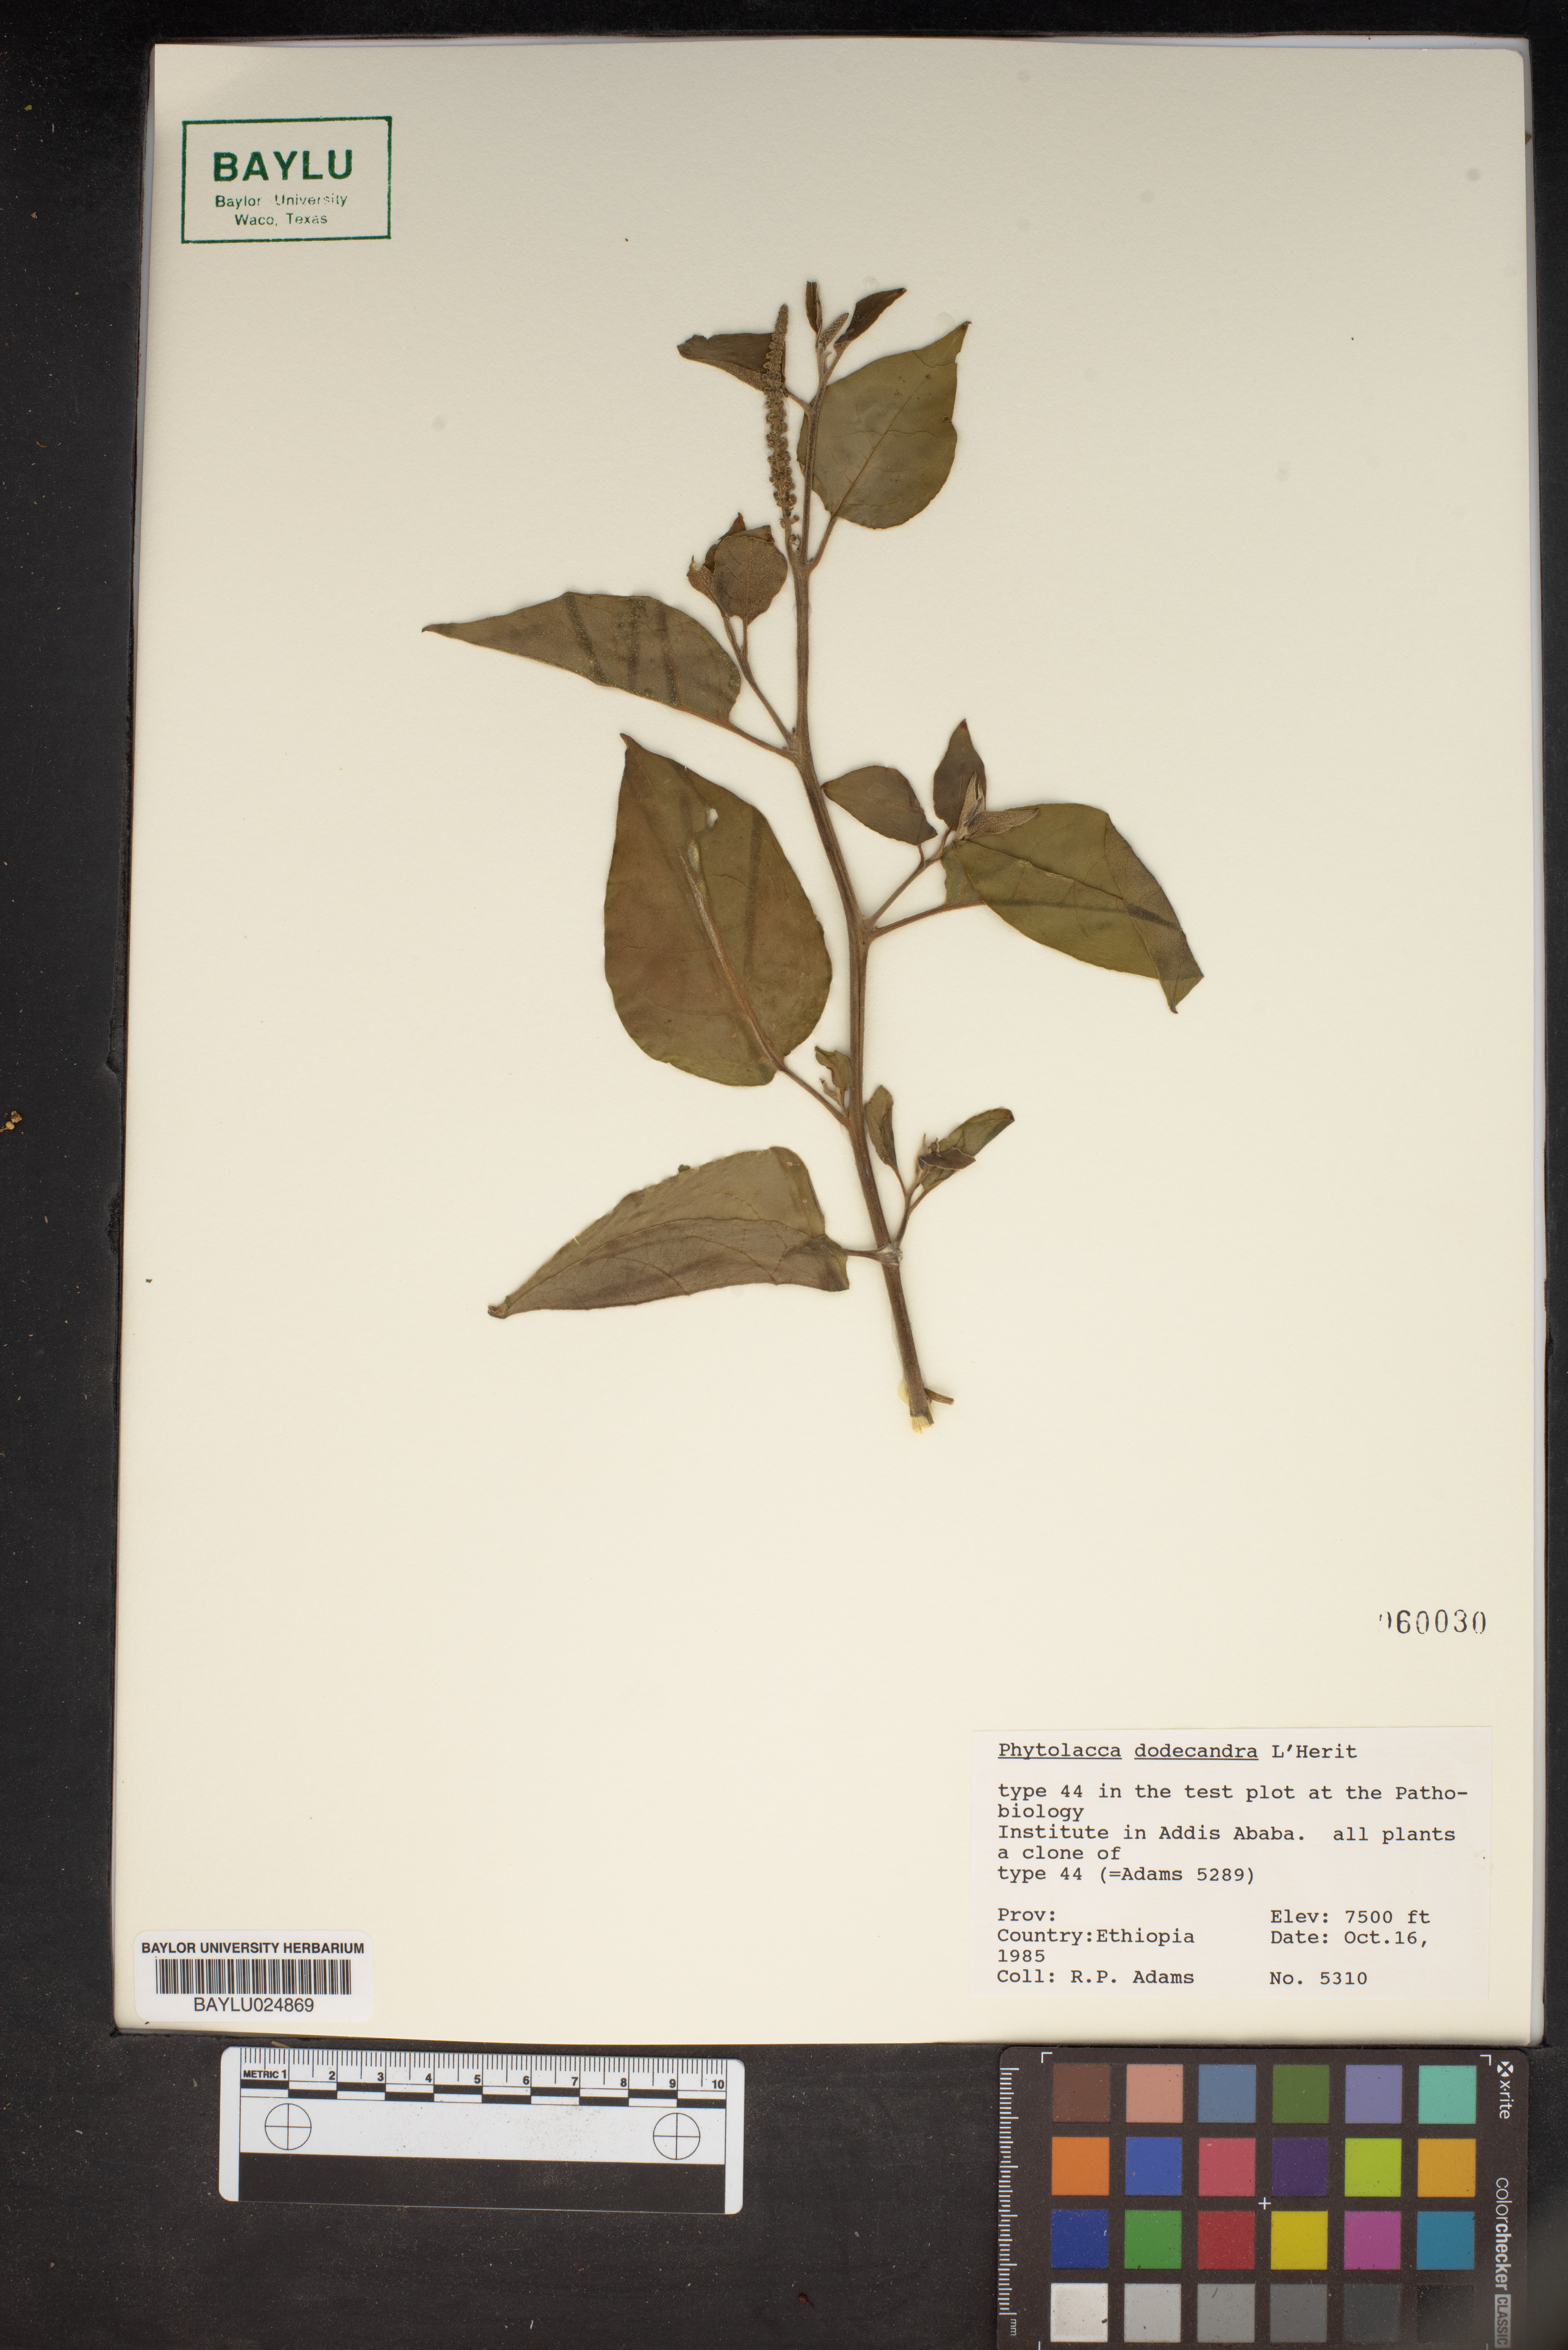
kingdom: Plantae
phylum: Tracheophyta
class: Magnoliopsida
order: Caryophyllales
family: Phytolaccaceae
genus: Phytolacca
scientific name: Phytolacca dodecandra
